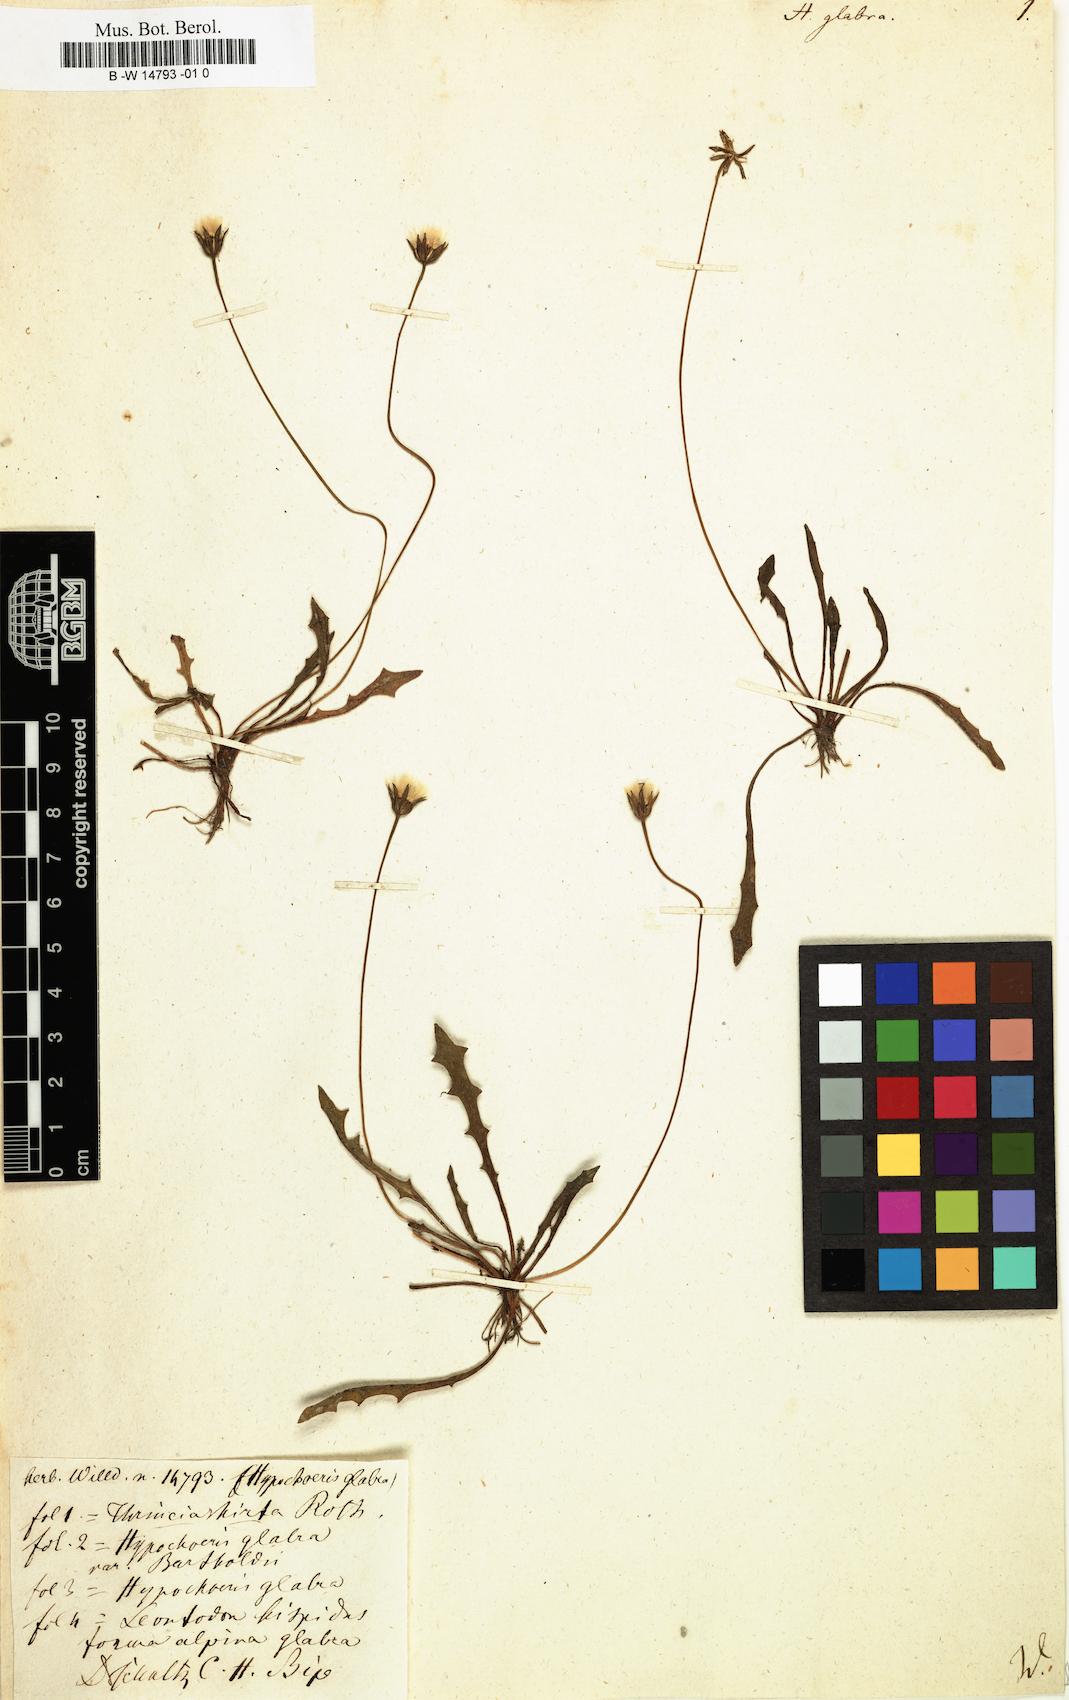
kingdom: Plantae
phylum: Tracheophyta
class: Magnoliopsida
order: Asterales
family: Asteraceae
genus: Hypochaeris
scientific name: Hypochaeris glabra
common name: Smooth catsear
